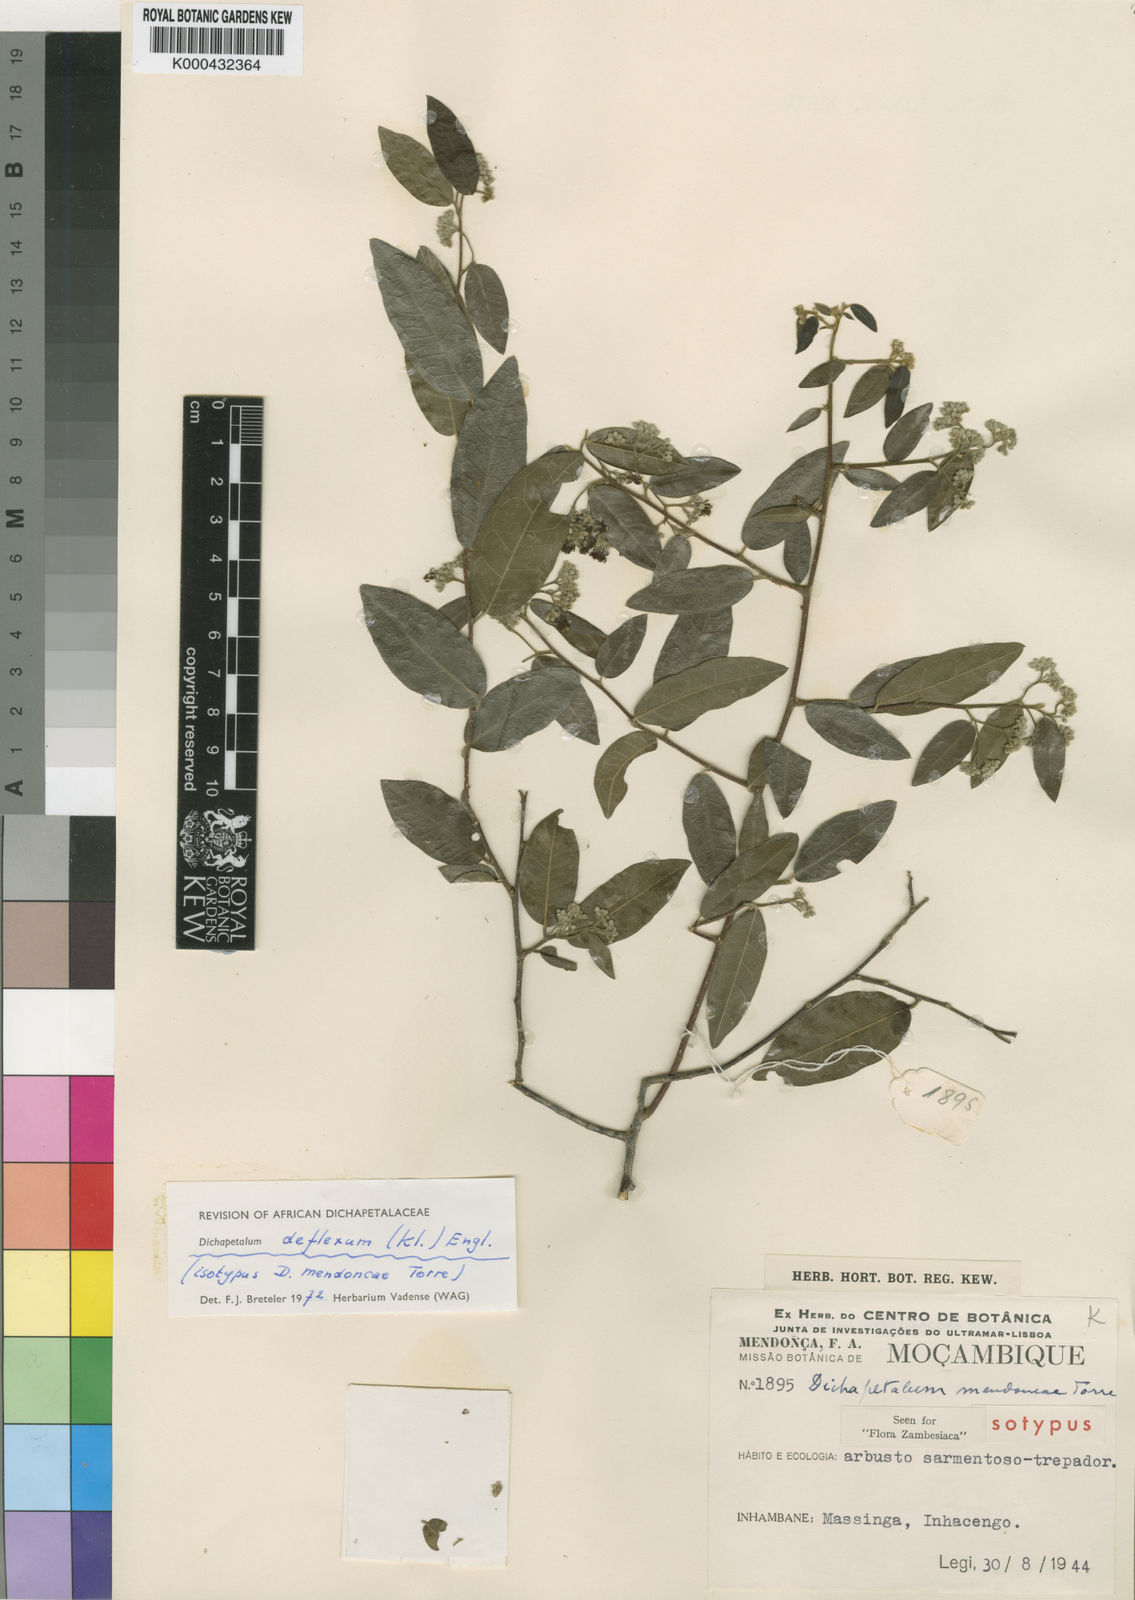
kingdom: Plantae
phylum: Tracheophyta
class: Magnoliopsida
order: Malpighiales
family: Dichapetalaceae
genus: Dichapetalum
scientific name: Dichapetalum deflexum
